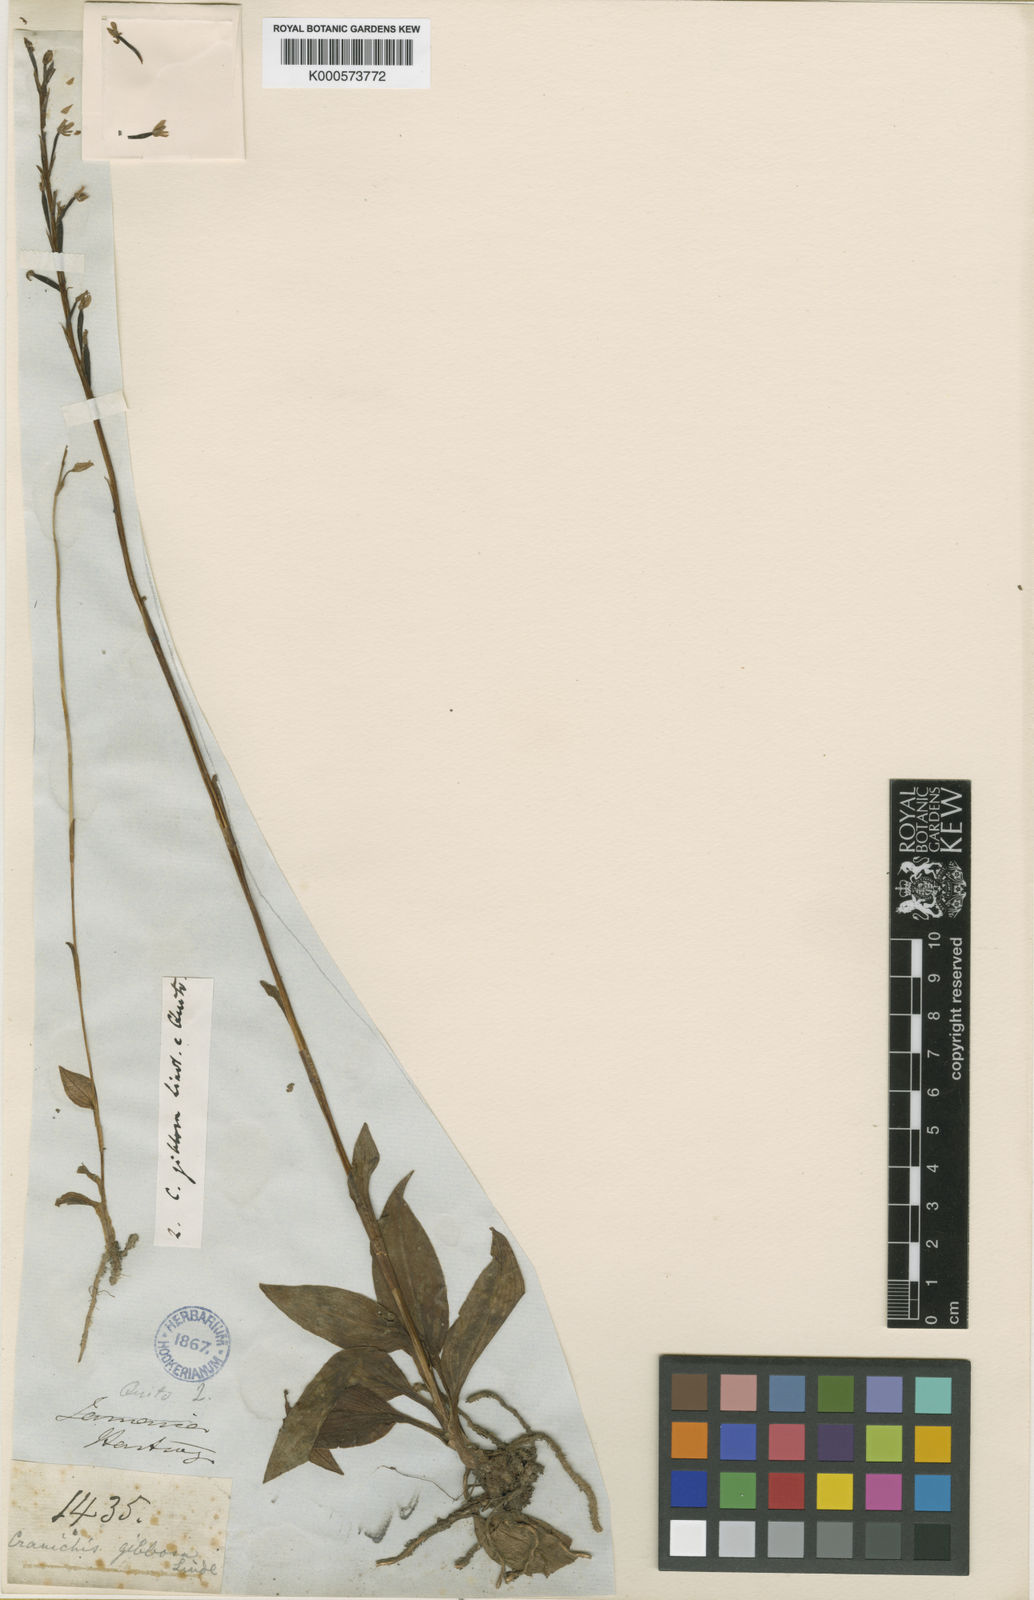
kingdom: Plantae
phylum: Tracheophyta
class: Liliopsida
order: Asparagales
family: Orchidaceae
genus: Cranichis
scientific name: Cranichis gibbosa
